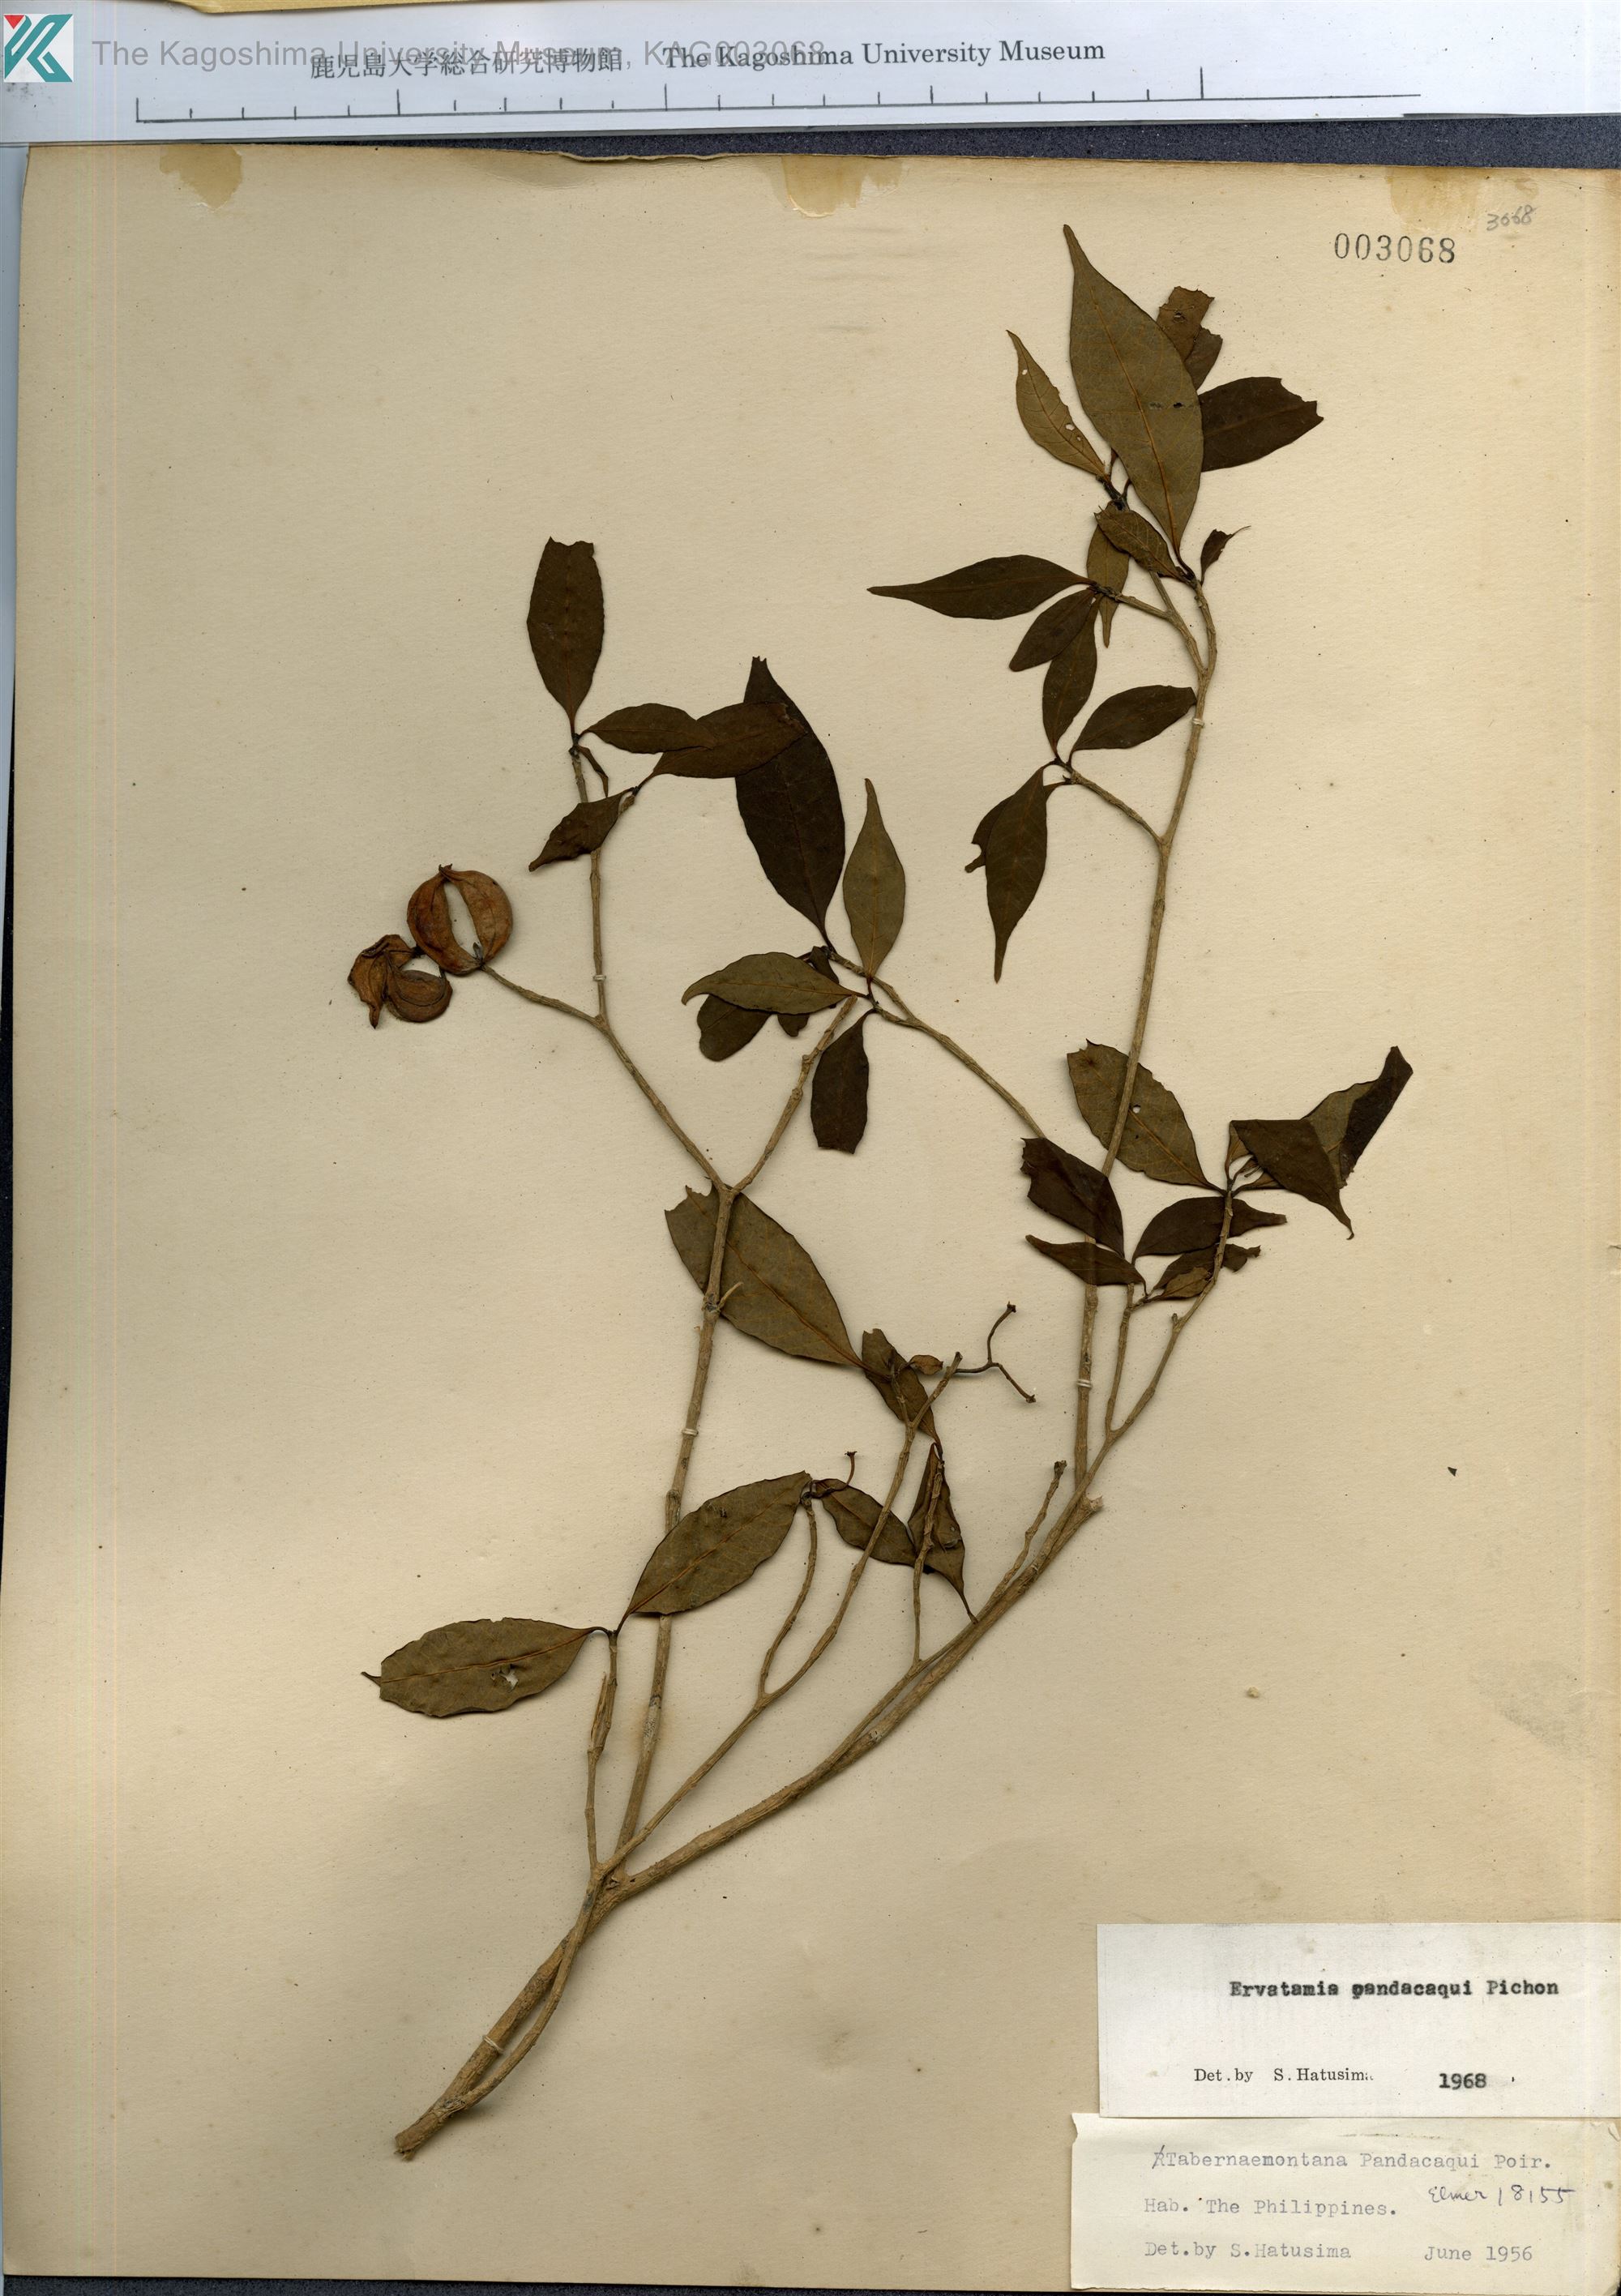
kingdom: Plantae
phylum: Tracheophyta
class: Magnoliopsida
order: Gentianales
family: Apocynaceae
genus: Tabernaemontana
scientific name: Tabernaemontana pandacaqui
